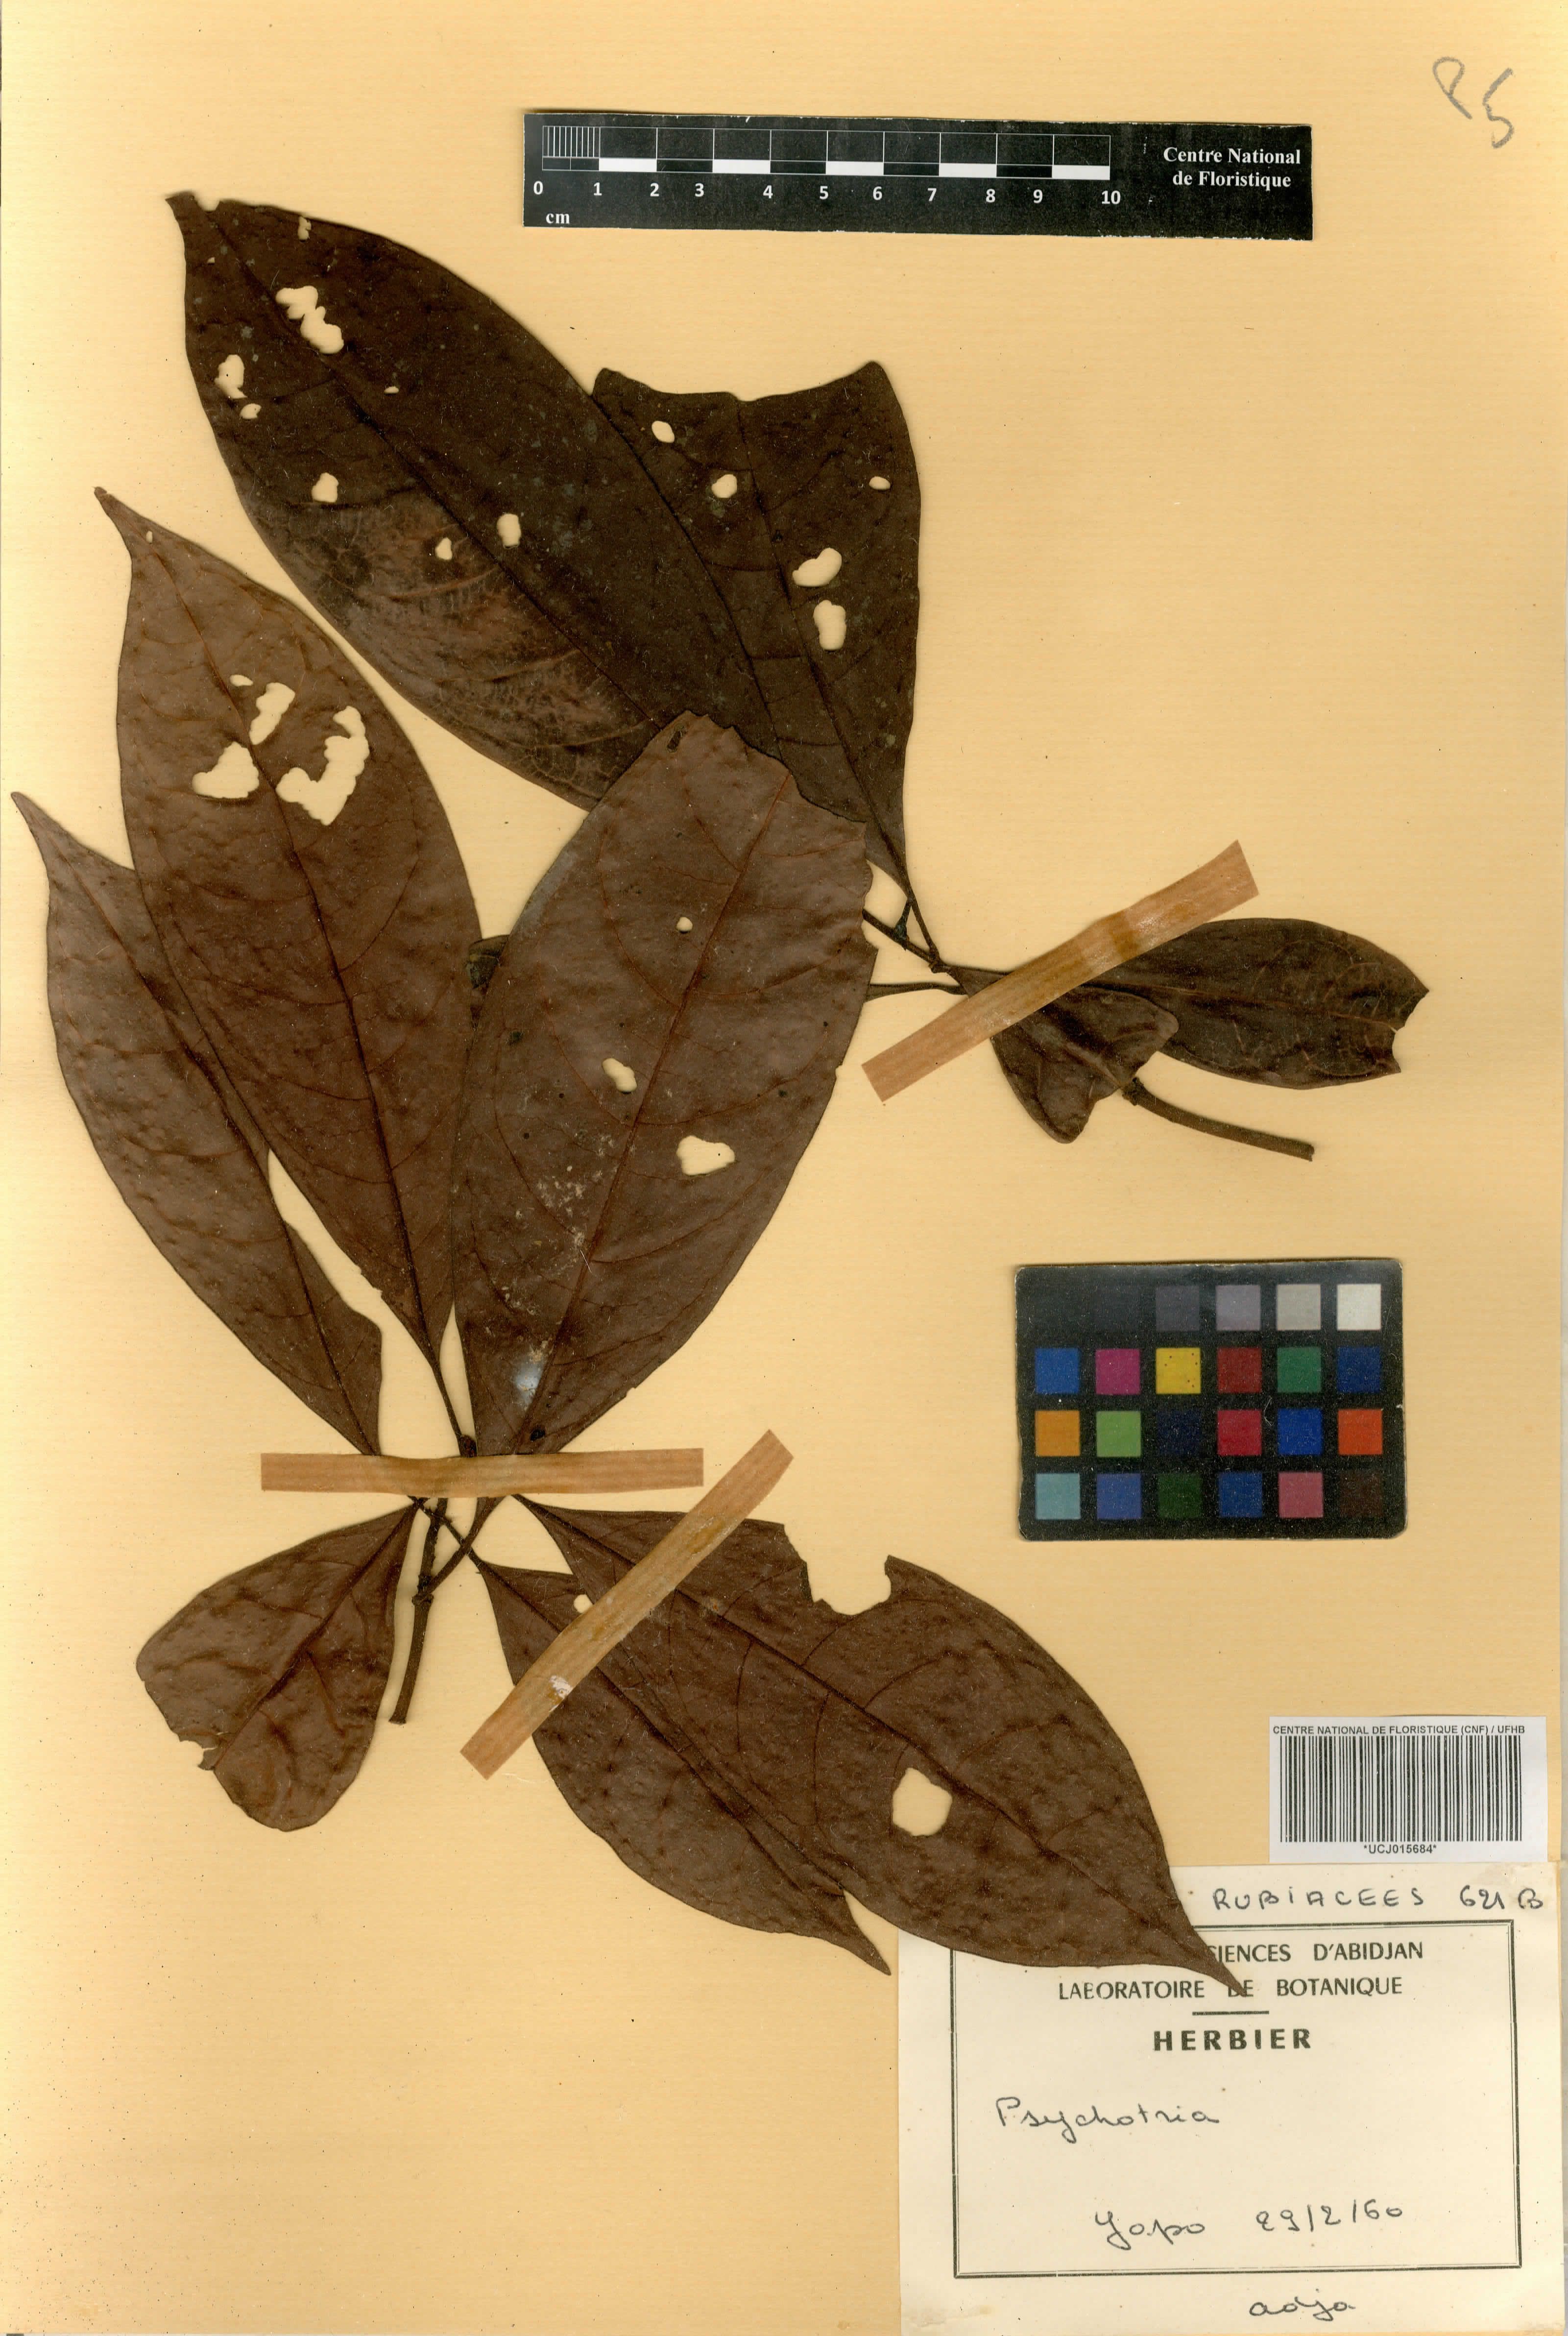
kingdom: Plantae
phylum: Tracheophyta
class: Magnoliopsida
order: Gentianales
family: Rubiaceae
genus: Psychotria
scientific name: Psychotria gabonica
